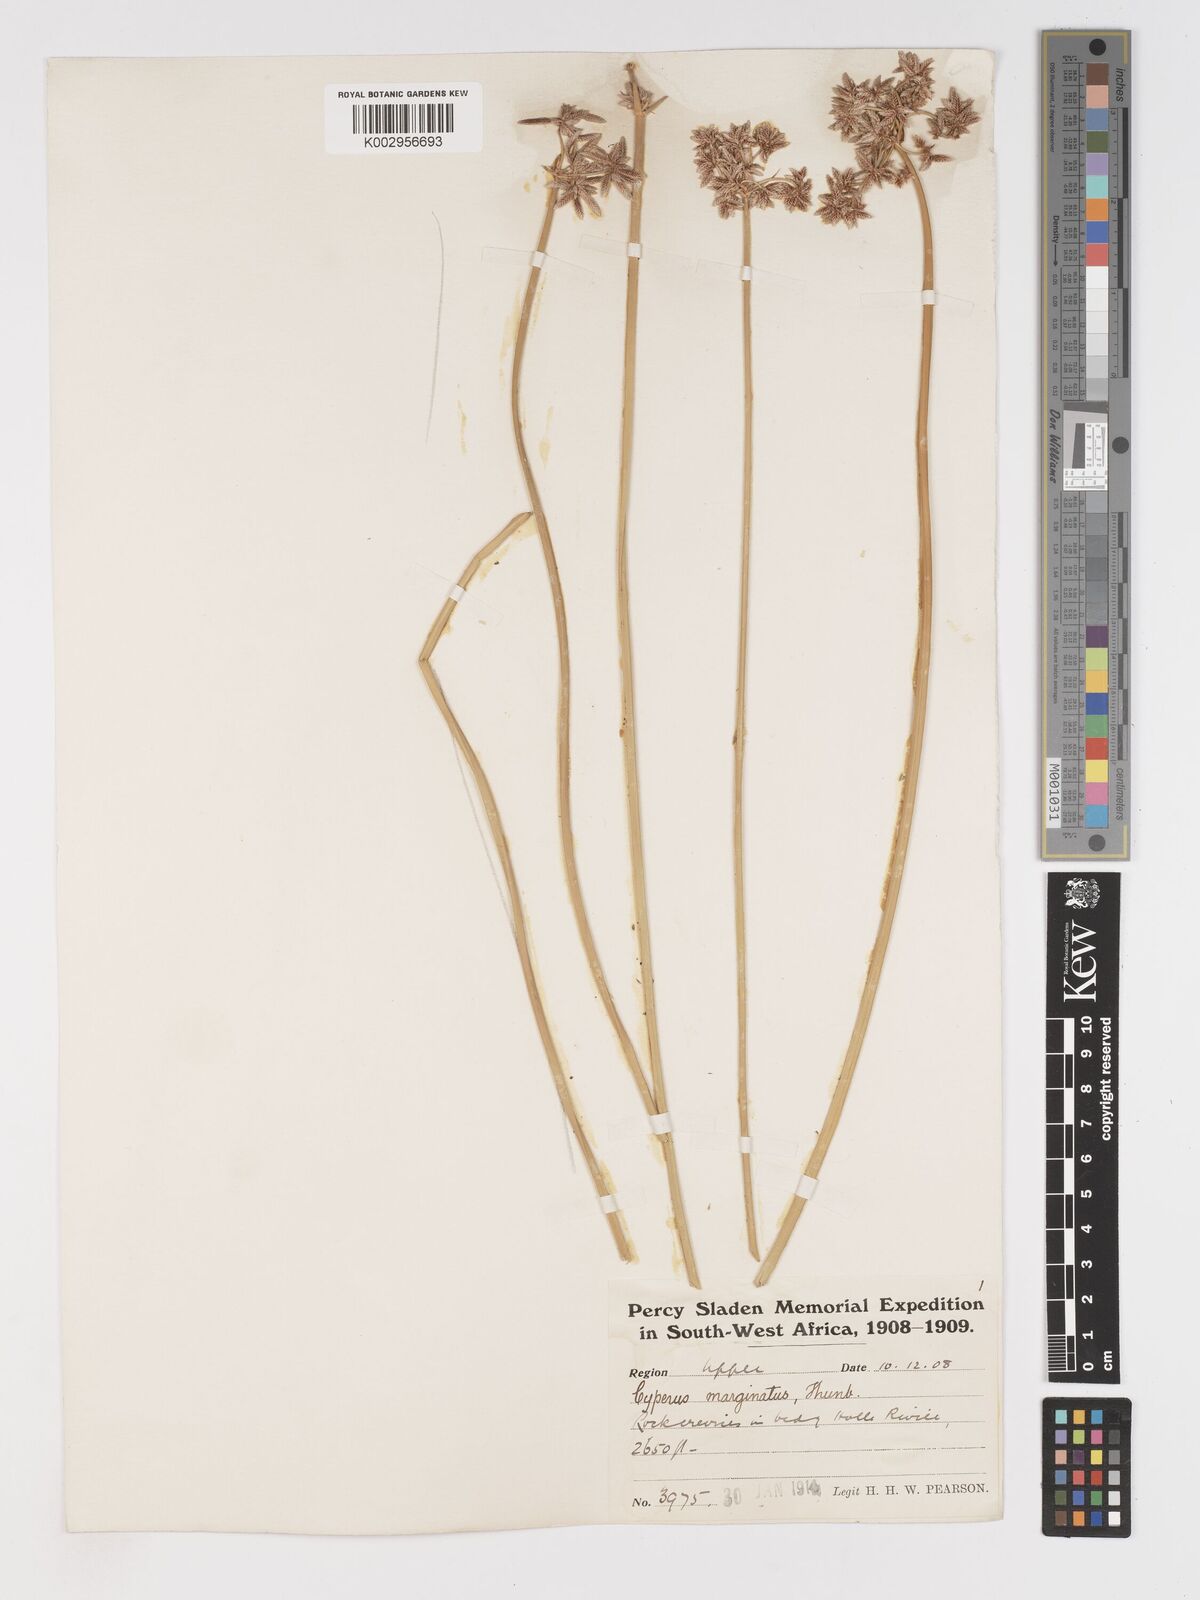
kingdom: Plantae
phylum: Tracheophyta
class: Liliopsida
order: Poales
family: Cyperaceae
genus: Cyperus
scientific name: Cyperus marginatus
